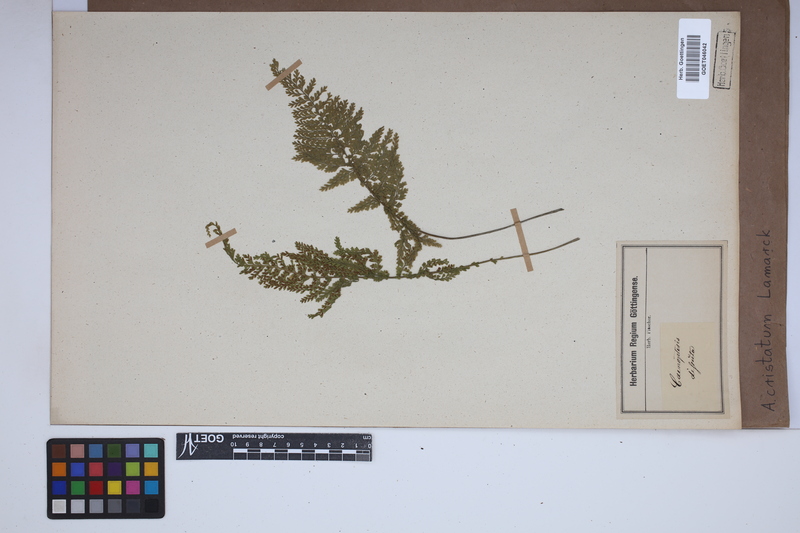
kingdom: Plantae
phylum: Tracheophyta
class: Polypodiopsida
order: Polypodiales
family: Aspleniaceae
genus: Asplenium
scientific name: Asplenium cristatum
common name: Parsley spleenwort
